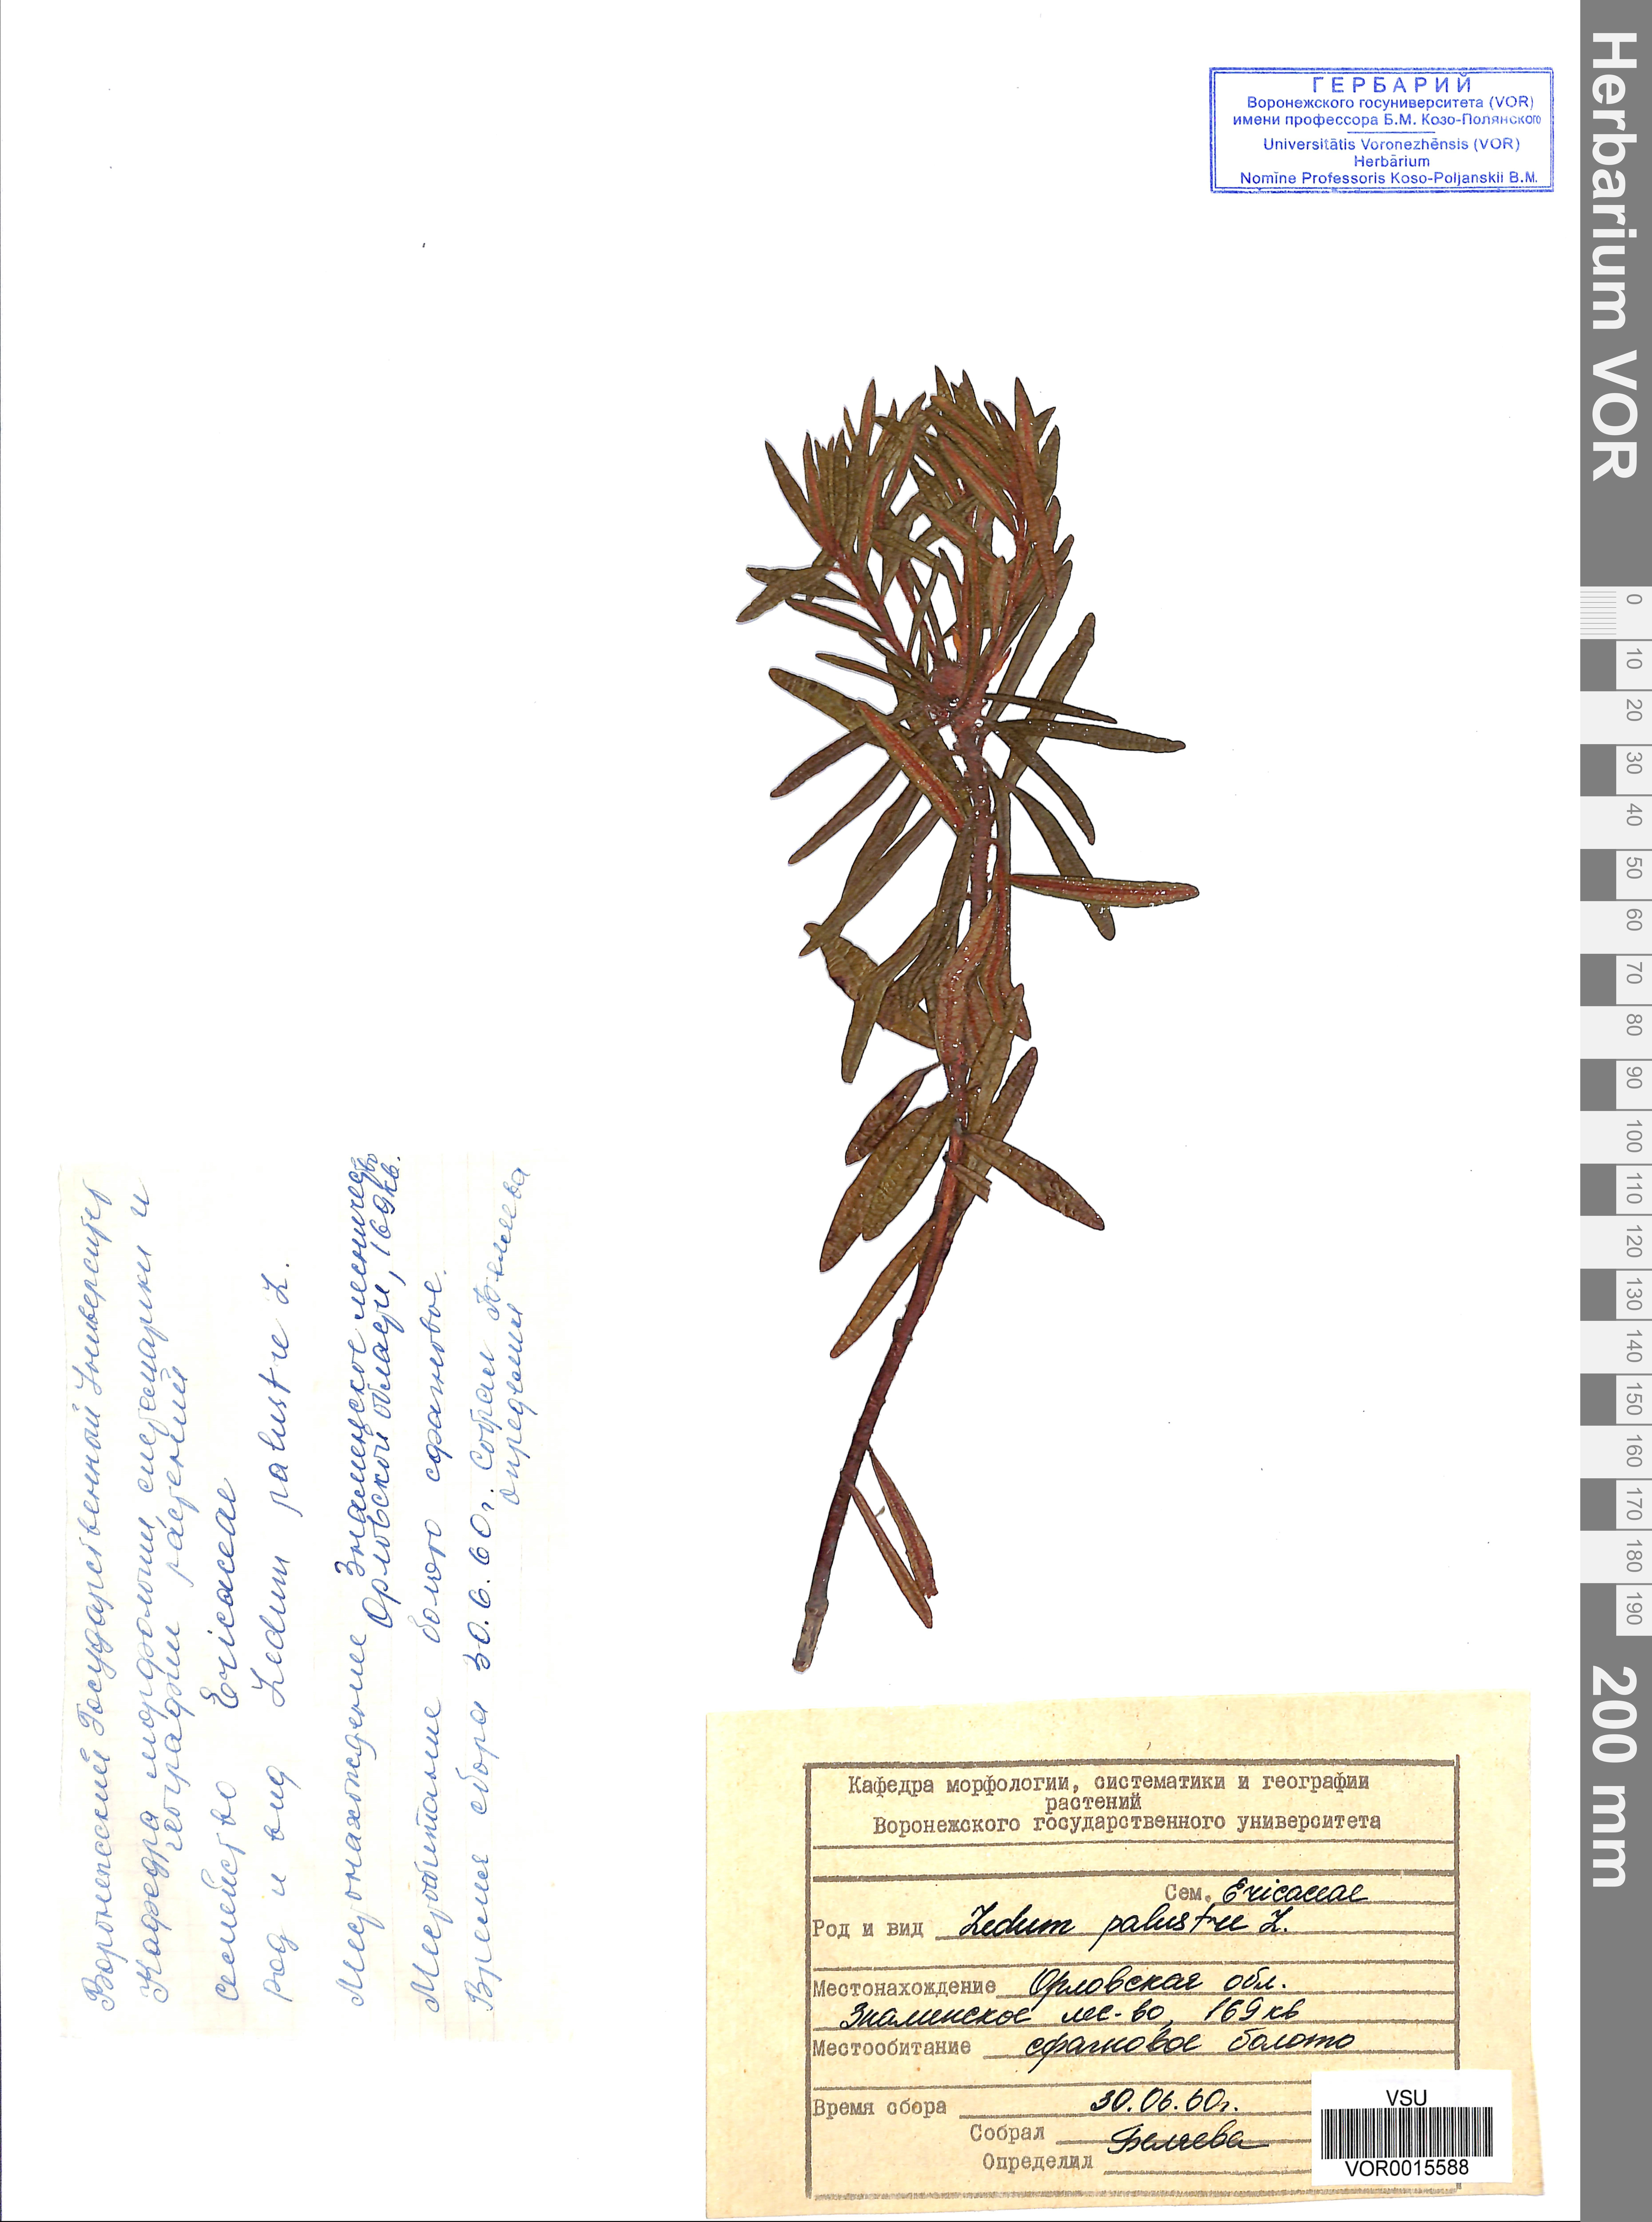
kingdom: Plantae
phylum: Tracheophyta
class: Magnoliopsida
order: Ericales
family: Ericaceae
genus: Rhododendron
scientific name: Rhododendron tomentosum
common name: Marsh labrador tea
